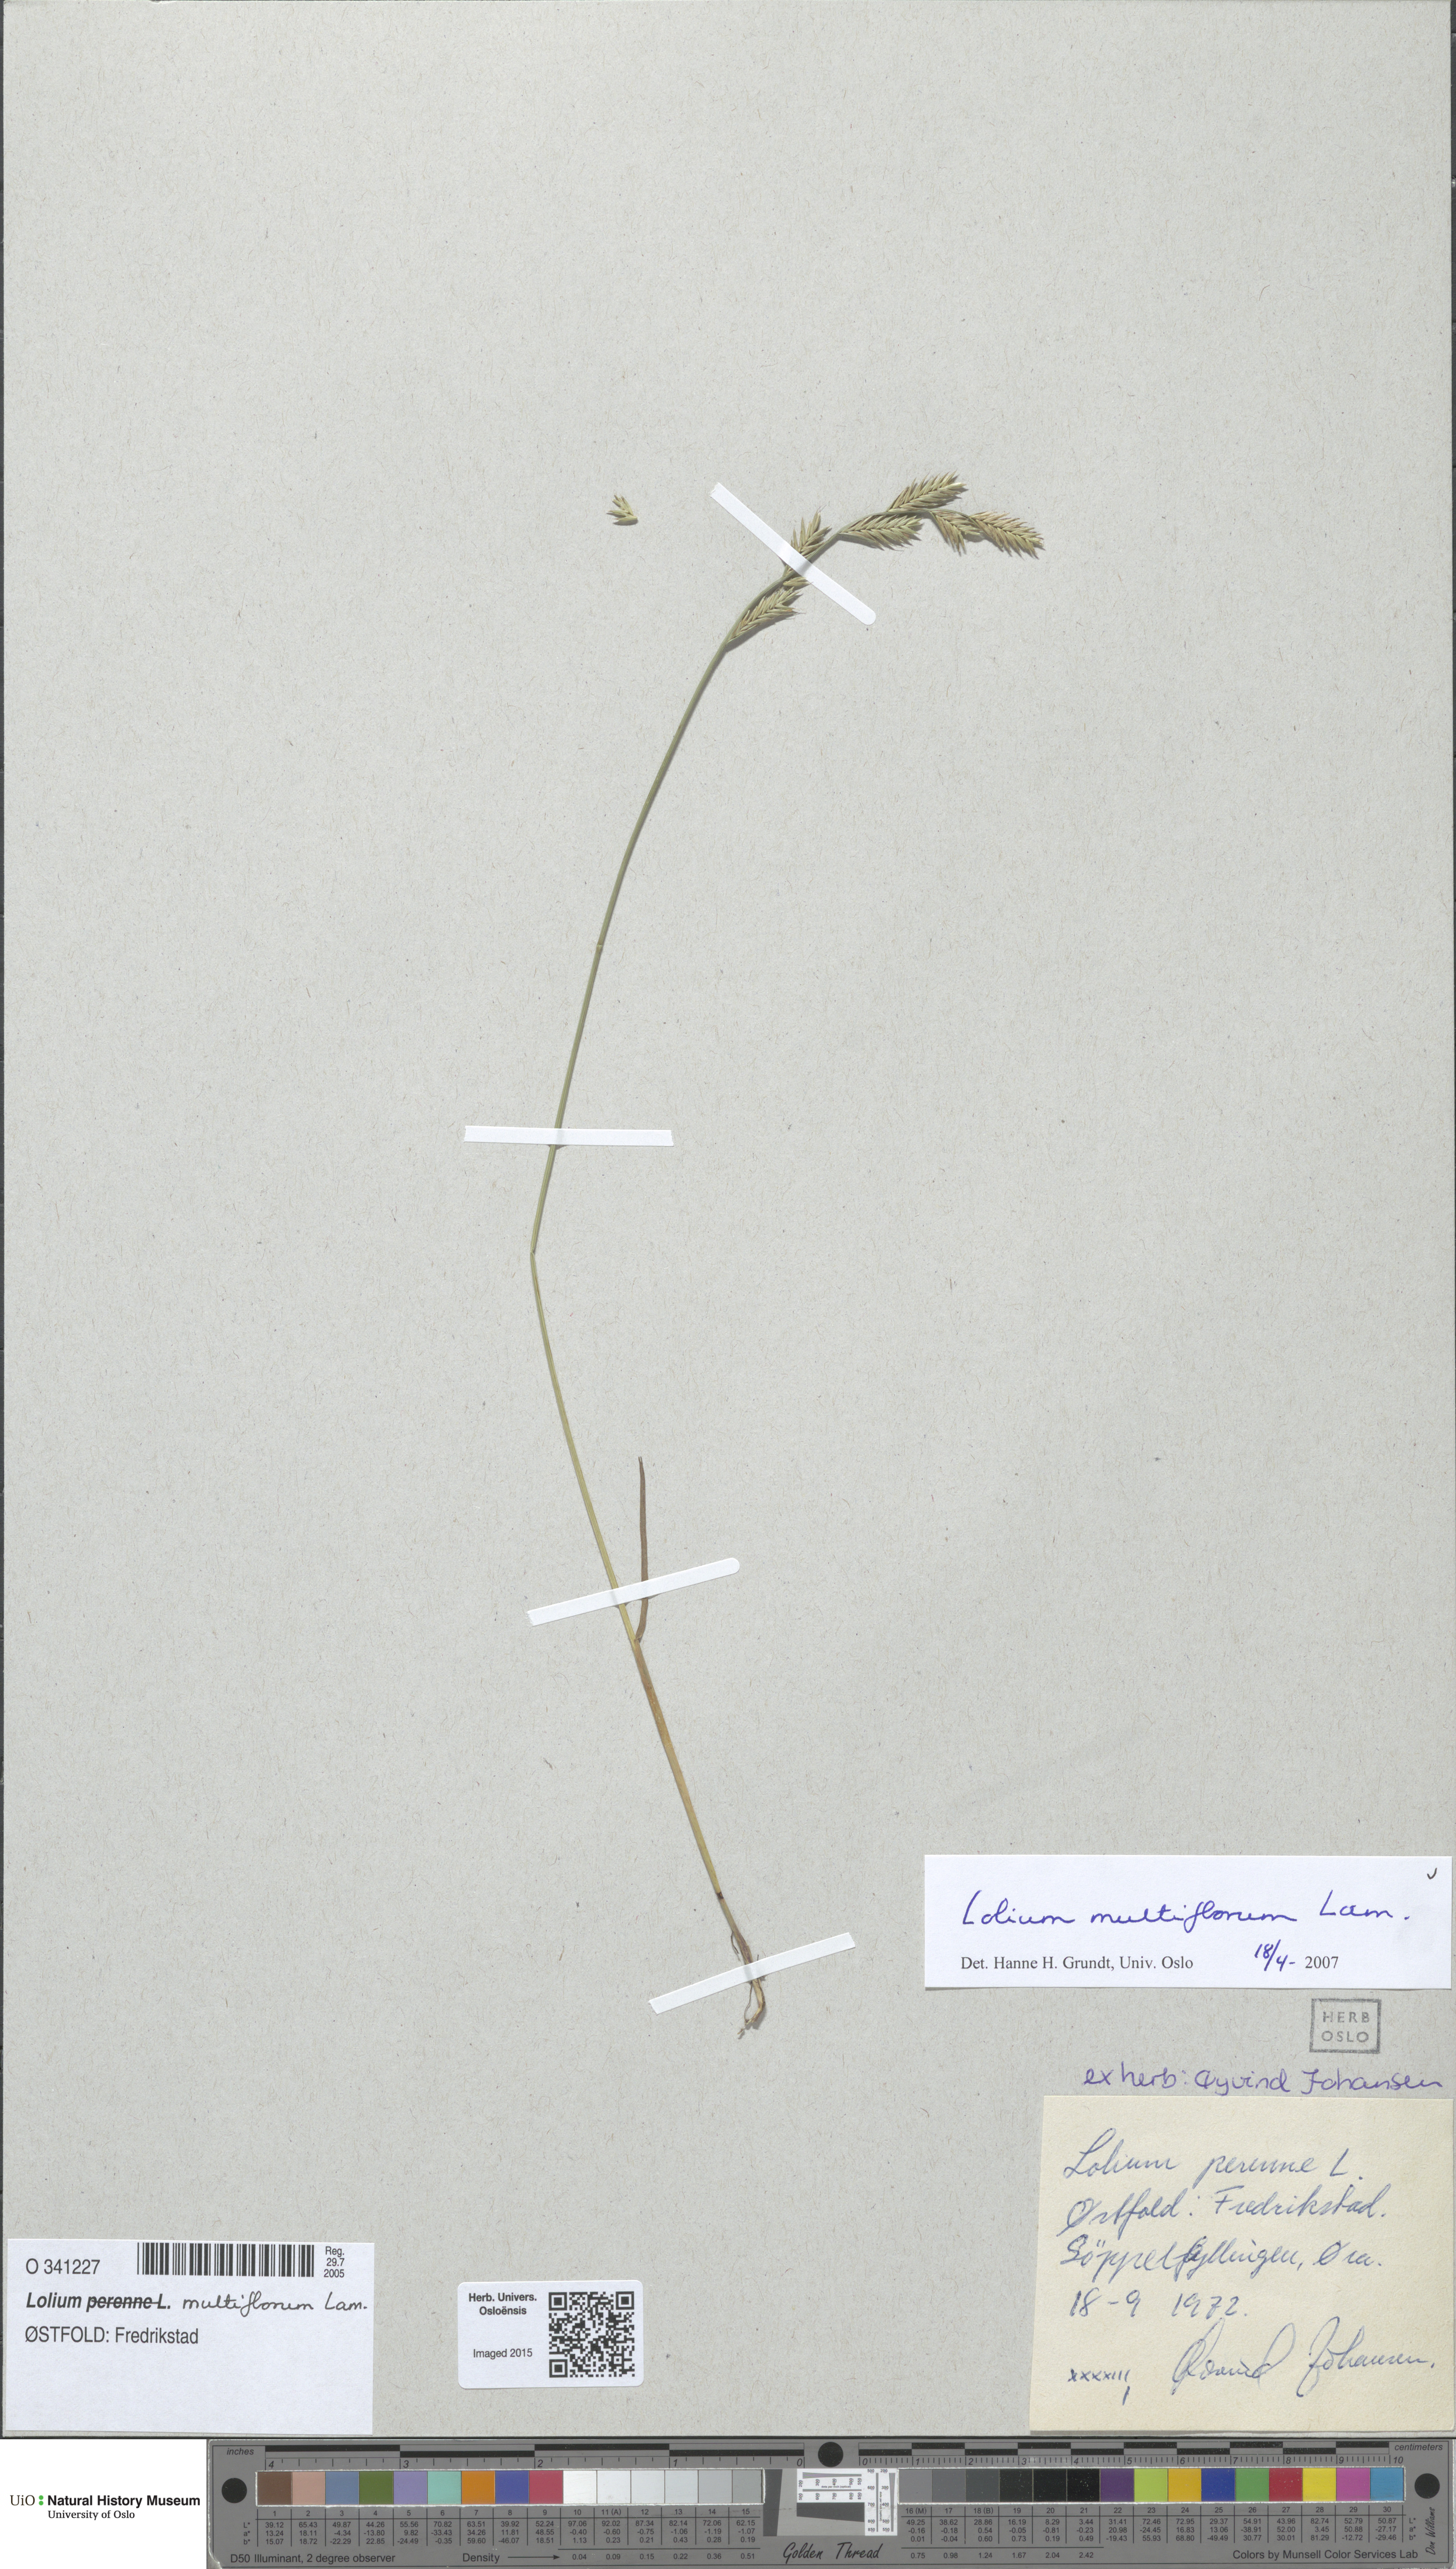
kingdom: Plantae
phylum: Tracheophyta
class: Liliopsida
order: Poales
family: Poaceae
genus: Lolium
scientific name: Lolium multiflorum
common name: Annual ryegrass
